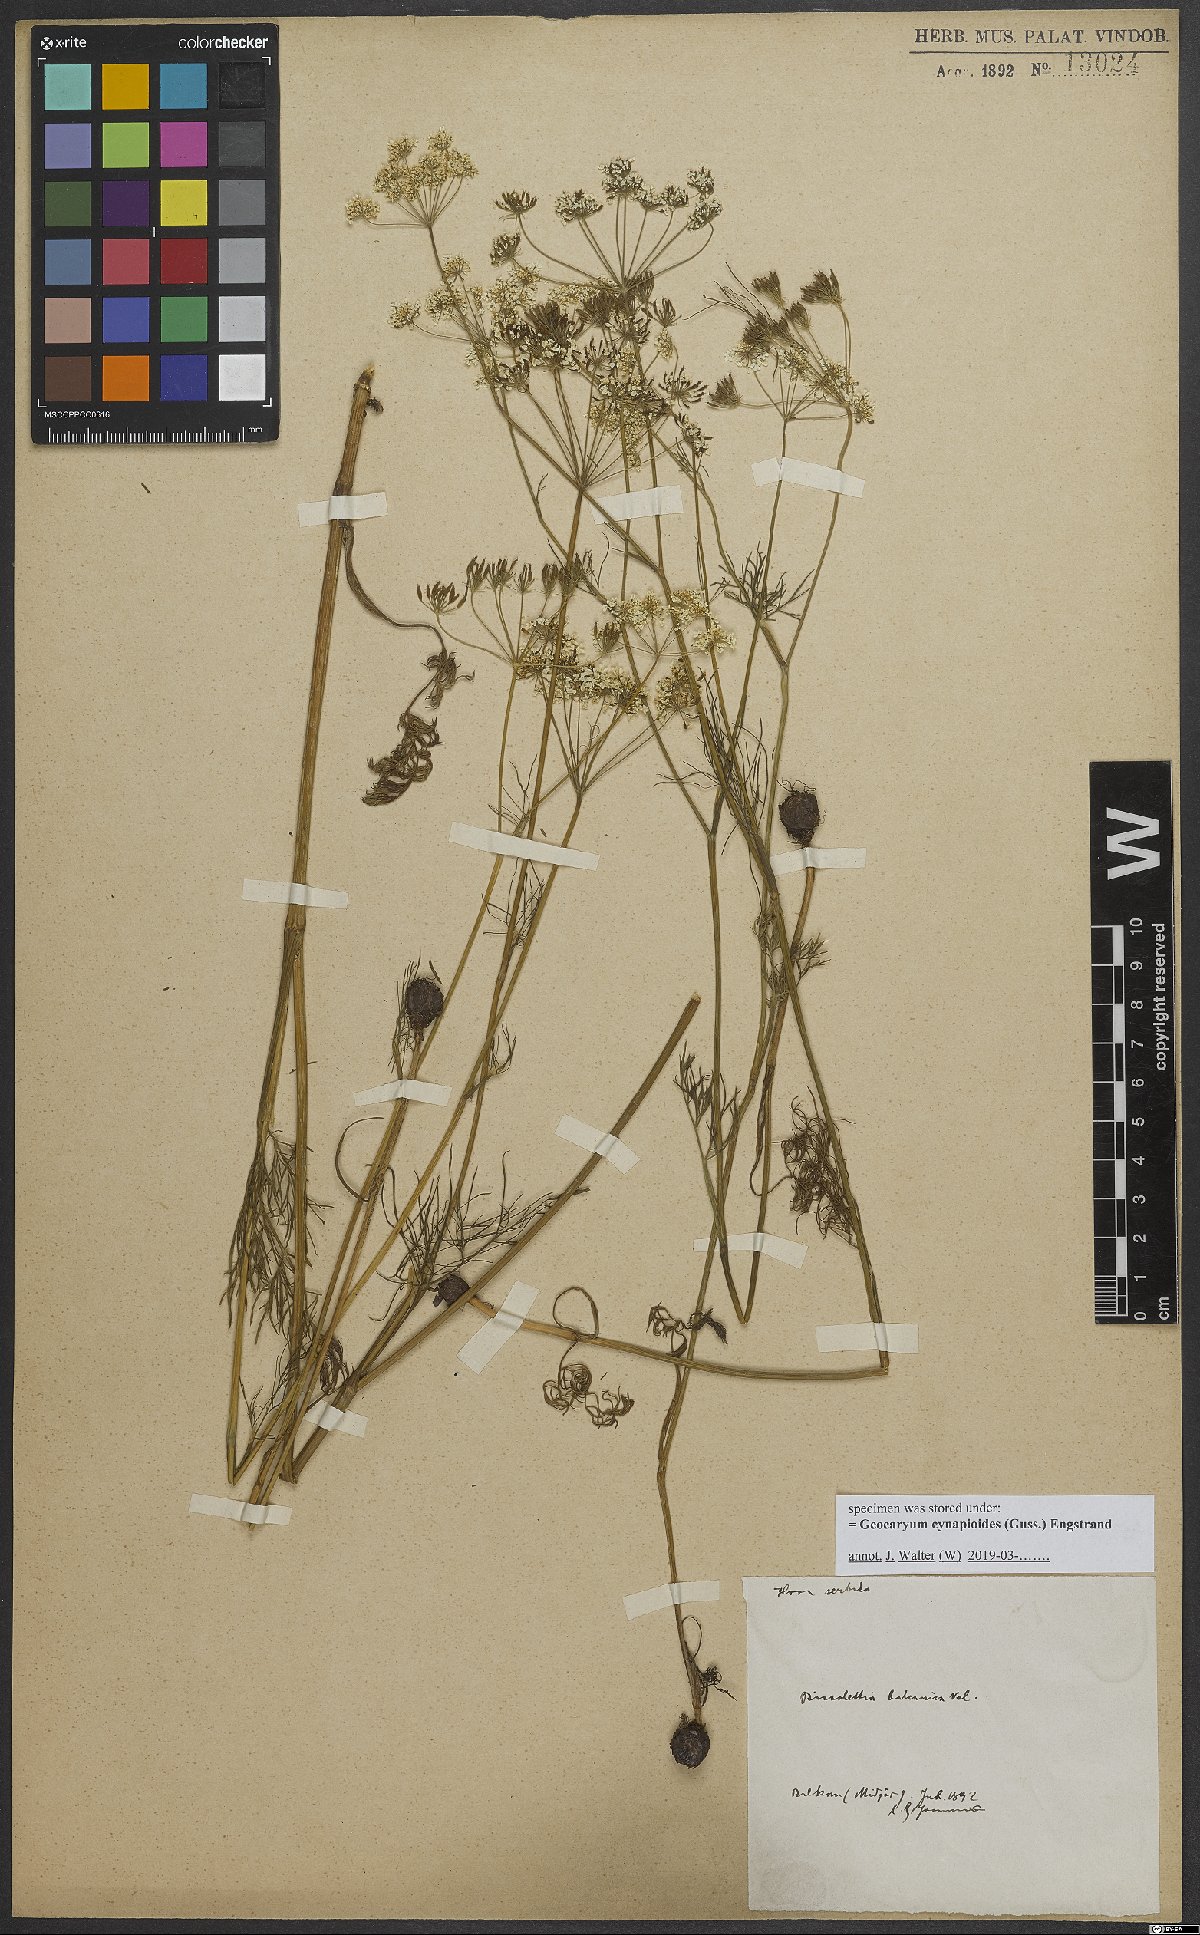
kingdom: Plantae
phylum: Tracheophyta
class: Magnoliopsida
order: Apiales
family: Apiaceae
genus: Geocaryum
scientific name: Geocaryum cynapioides
